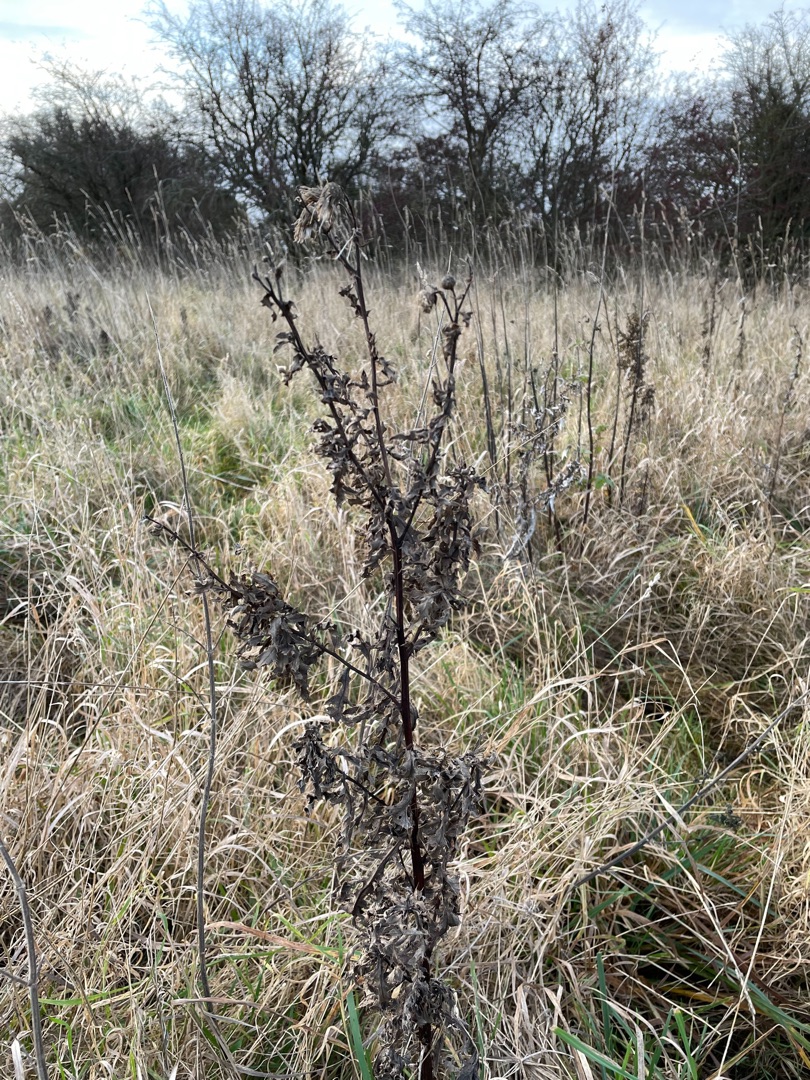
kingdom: Plantae
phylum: Tracheophyta
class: Magnoliopsida
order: Asterales
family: Asteraceae
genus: Cirsium
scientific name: Cirsium arvense
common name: Ager-tidsel
